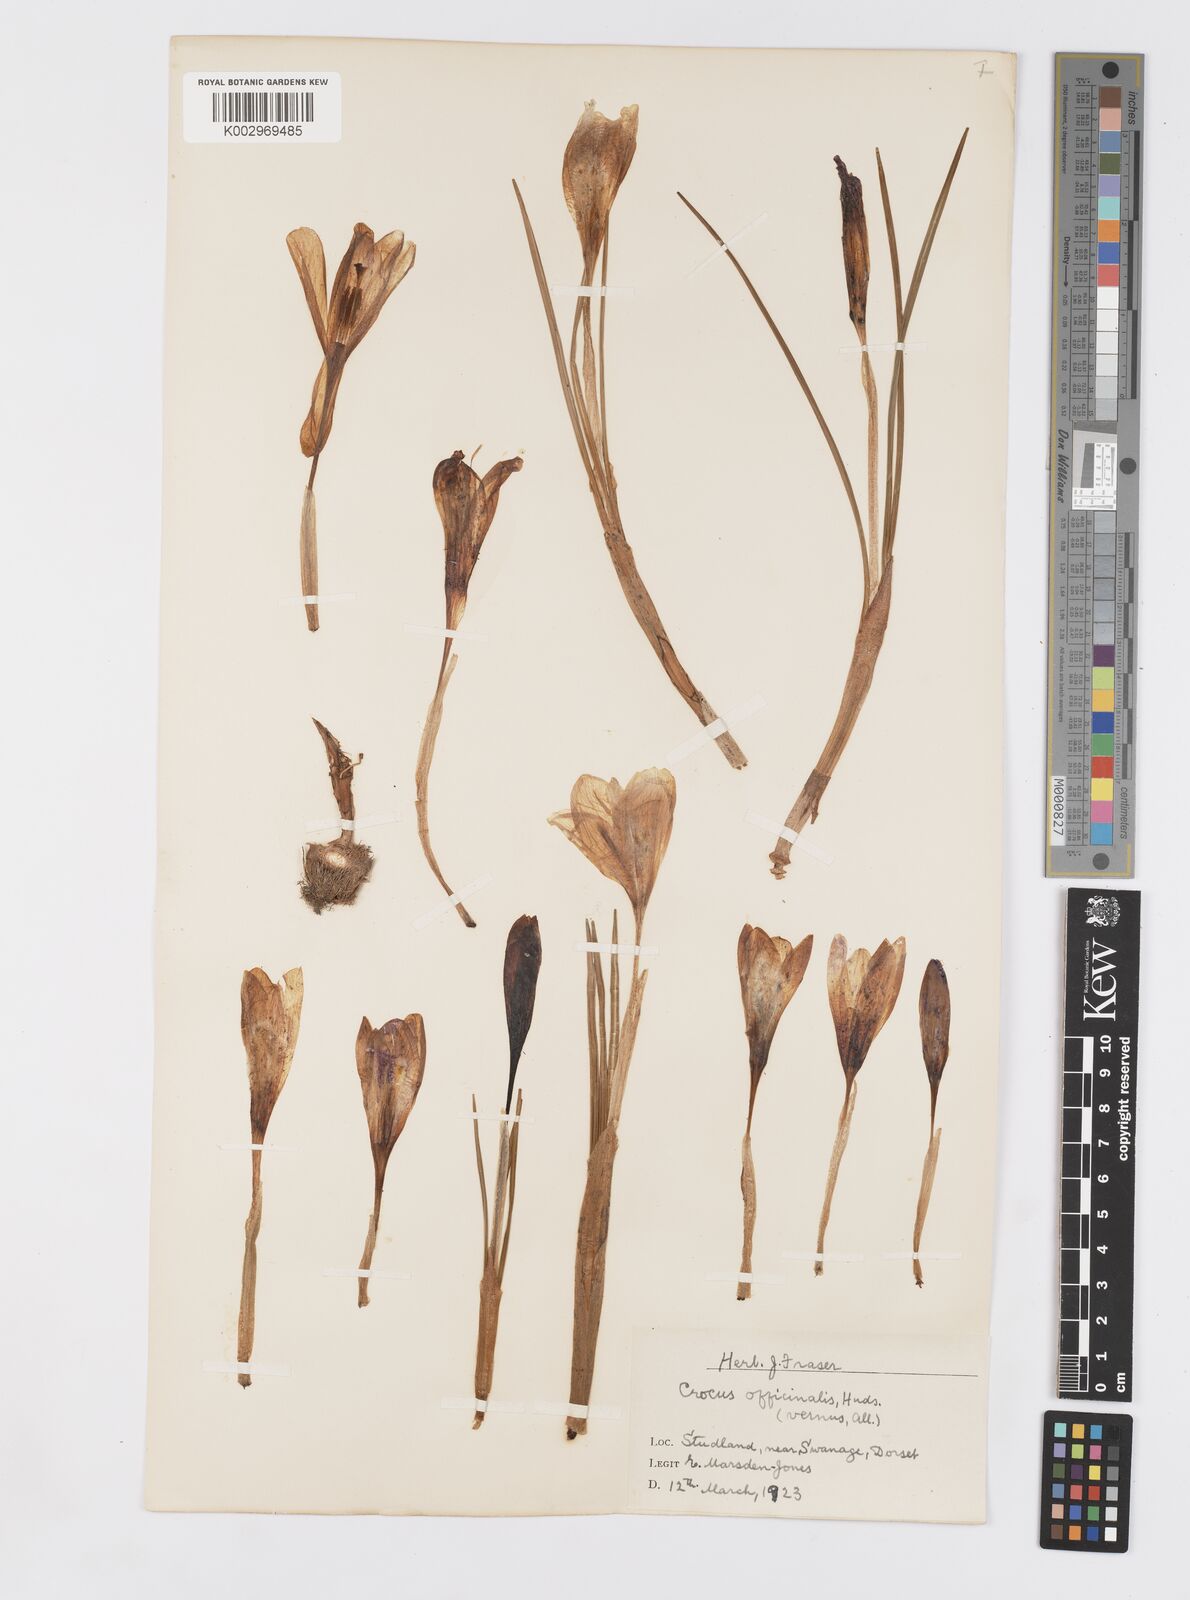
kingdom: Plantae
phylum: Tracheophyta
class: Liliopsida
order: Asparagales
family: Iridaceae
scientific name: Iridaceae
